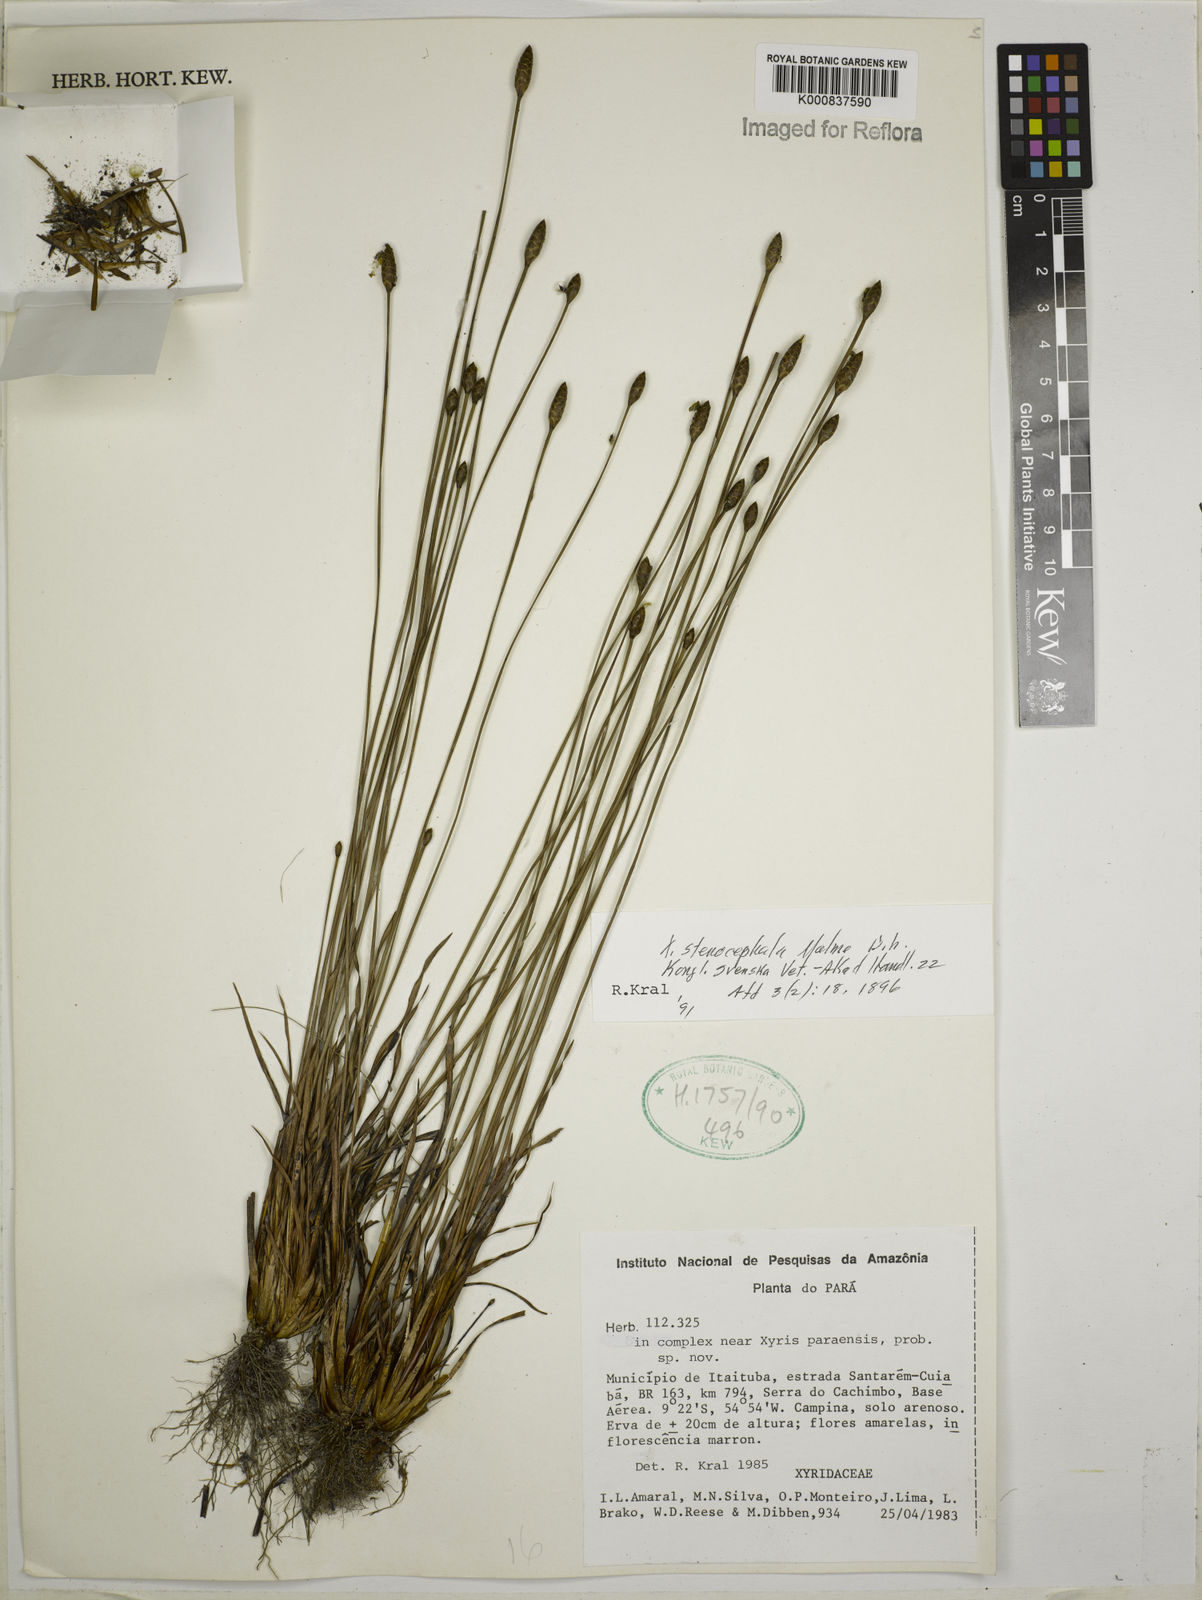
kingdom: Plantae
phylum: Tracheophyta
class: Liliopsida
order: Poales
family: Xyridaceae
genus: Xyris
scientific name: Xyris stenocephala
